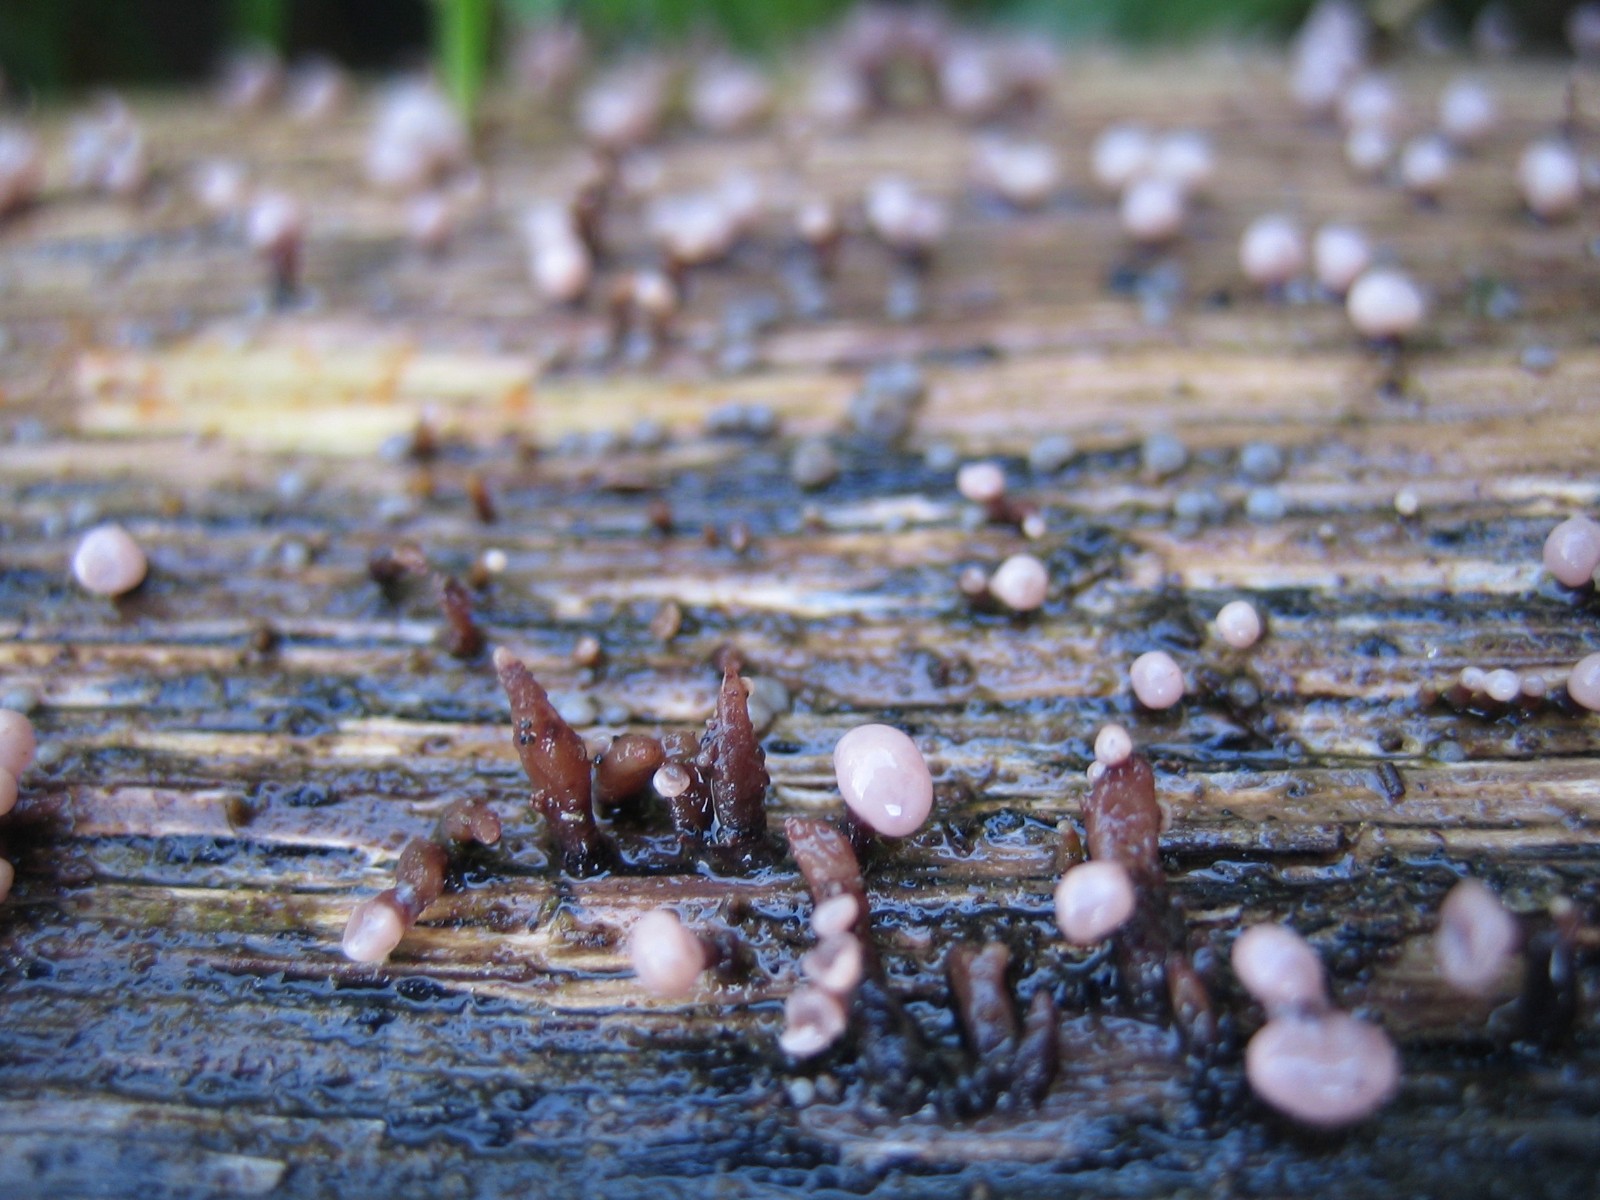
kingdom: Fungi
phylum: Ascomycota
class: Leotiomycetes
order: Helotiales
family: Gelatinodiscaceae
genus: Ascocoryne
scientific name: Ascocoryne albida
